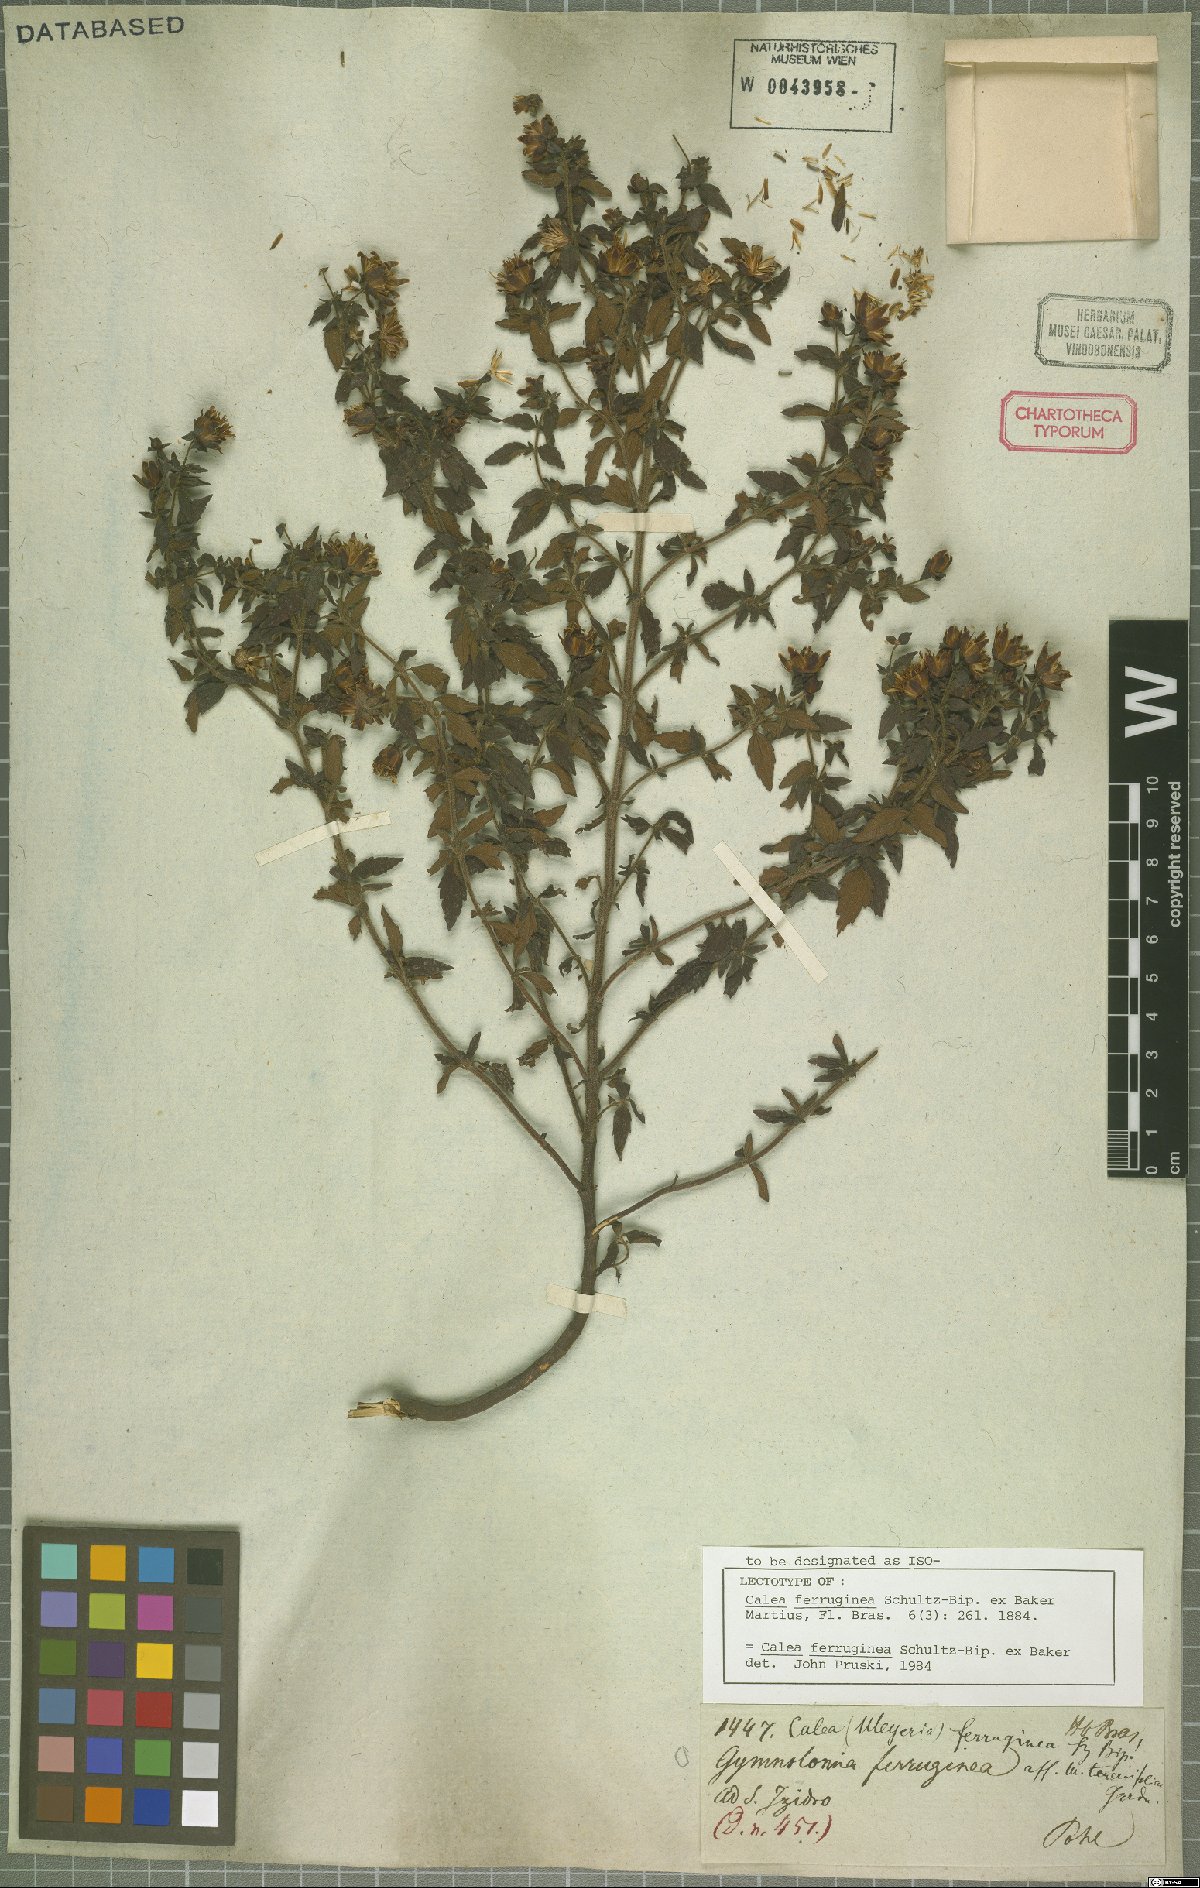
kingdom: Plantae
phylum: Tracheophyta
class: Magnoliopsida
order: Asterales
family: Asteraceae
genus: Calea
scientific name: Calea ferruginea
